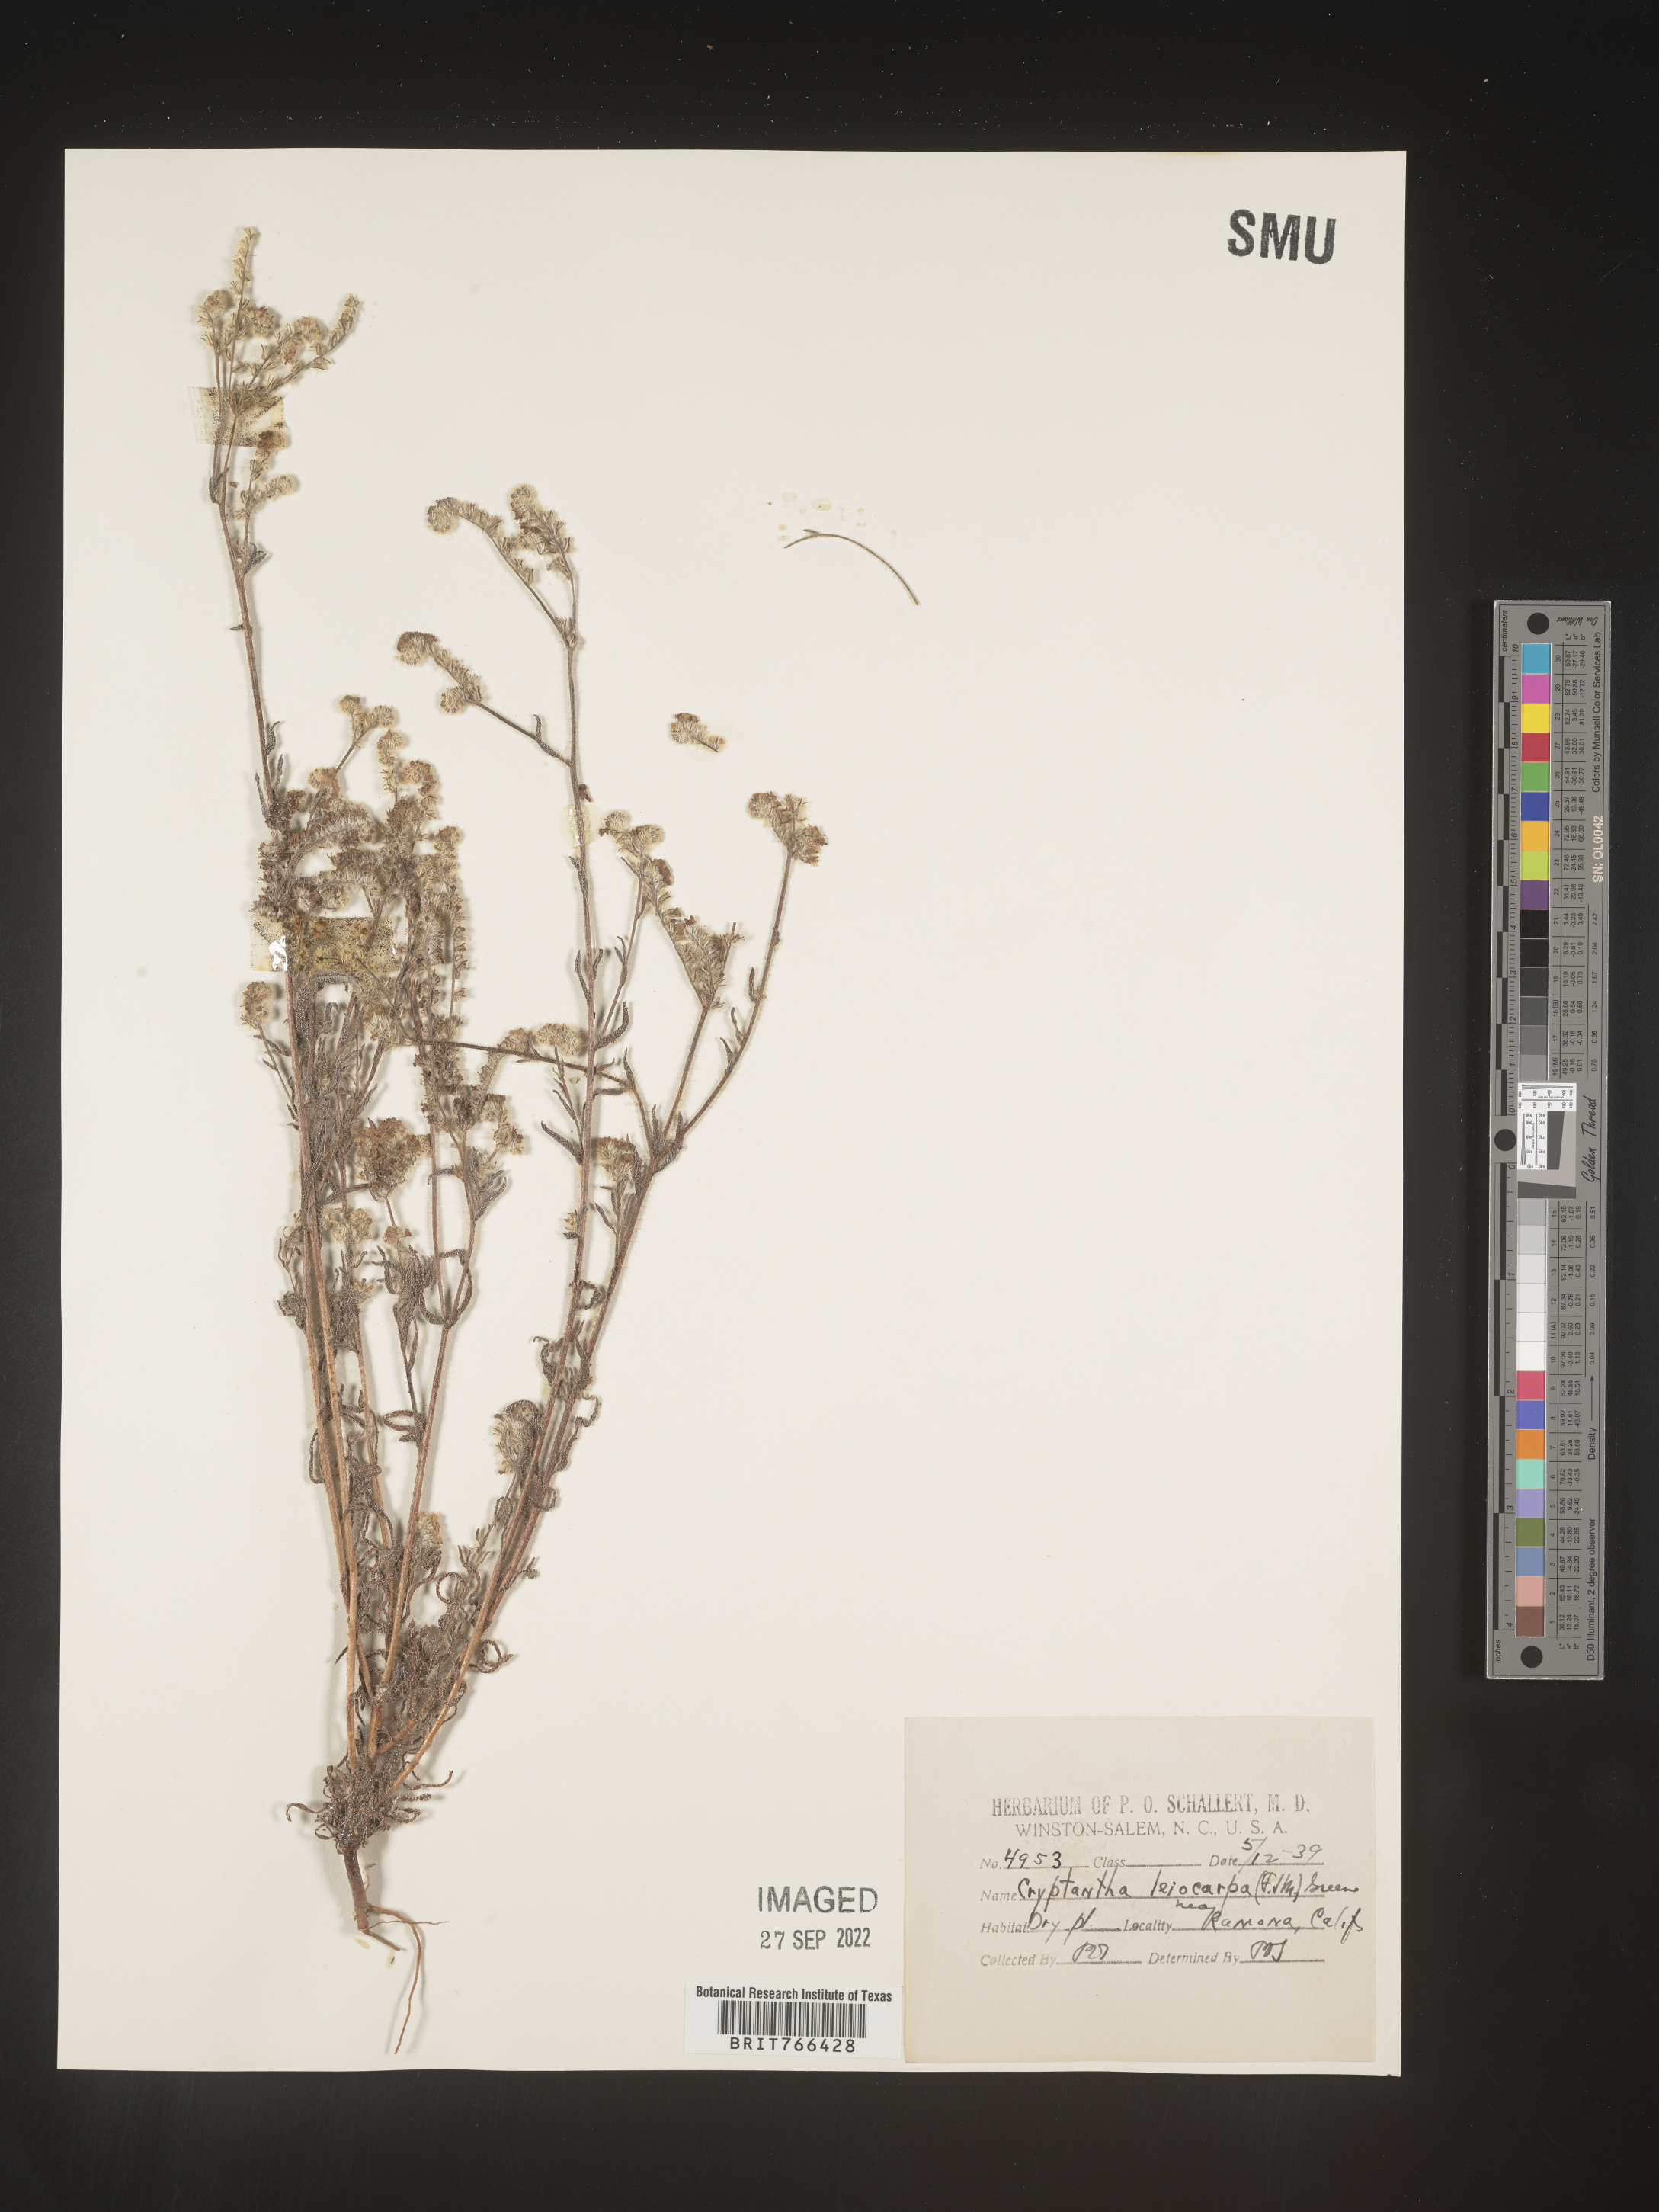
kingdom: Plantae
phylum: Tracheophyta
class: Magnoliopsida
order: Boraginales
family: Boraginaceae
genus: Cryptantha
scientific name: Cryptantha
